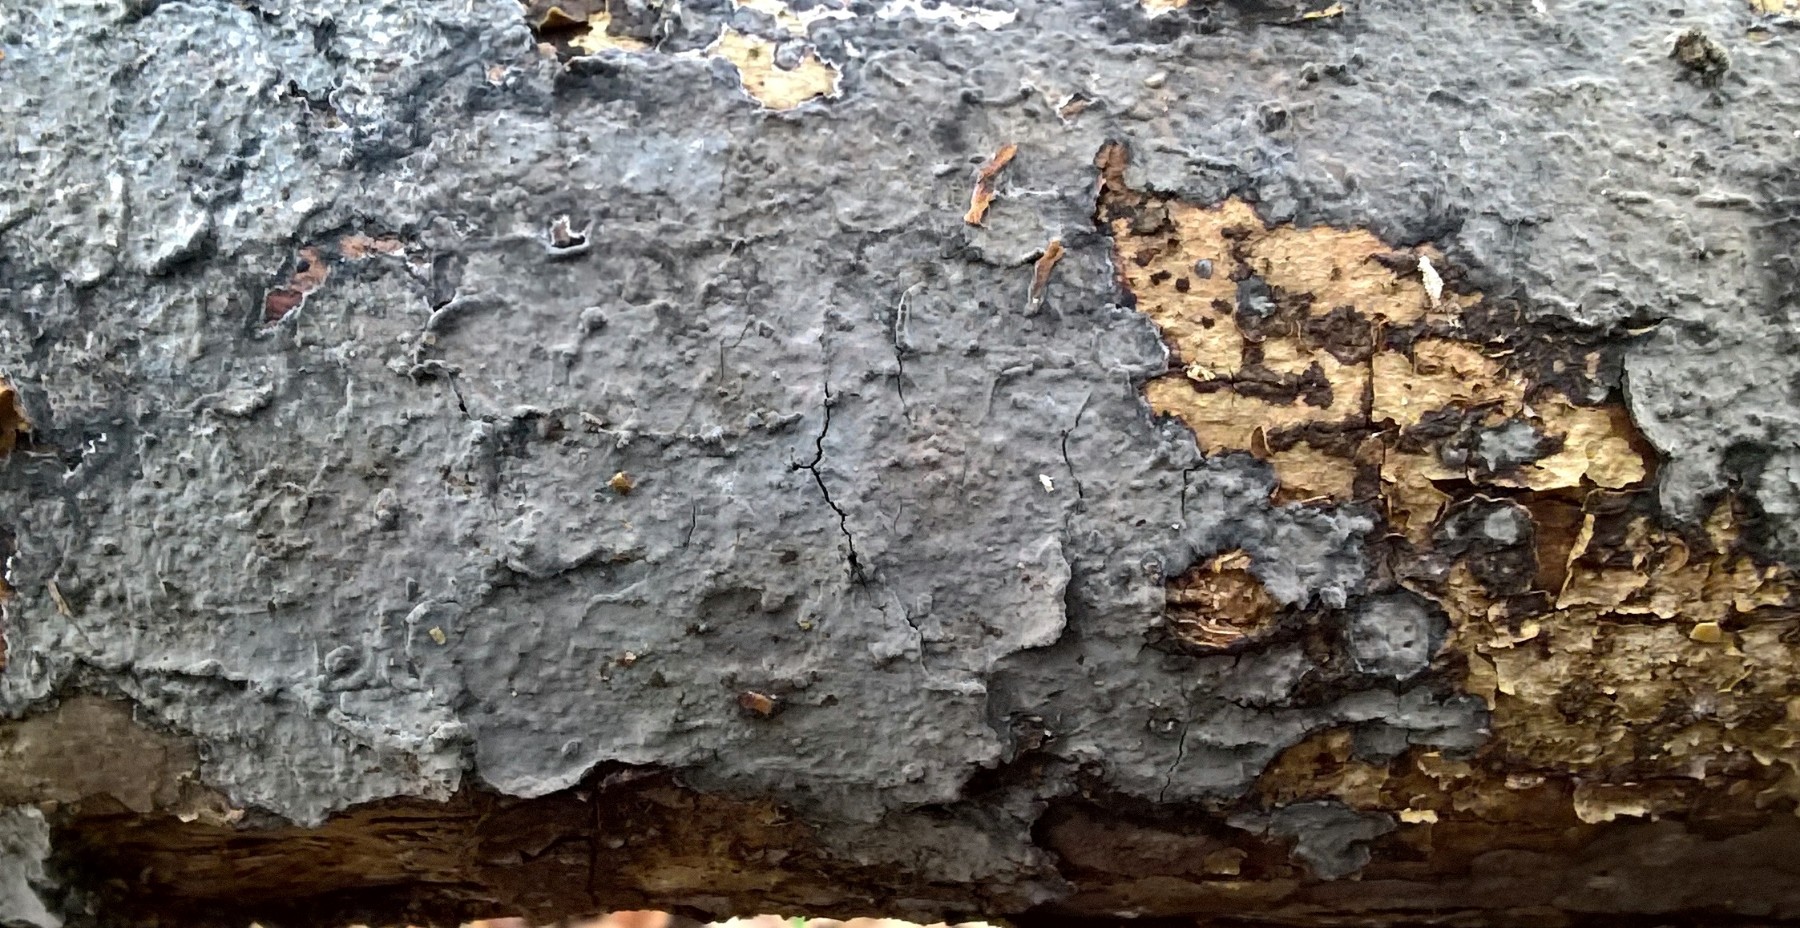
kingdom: Fungi
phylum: Basidiomycota
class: Agaricomycetes
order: Russulales
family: Peniophoraceae
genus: Peniophora
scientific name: Peniophora limitata
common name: mørkrandet voksskind
